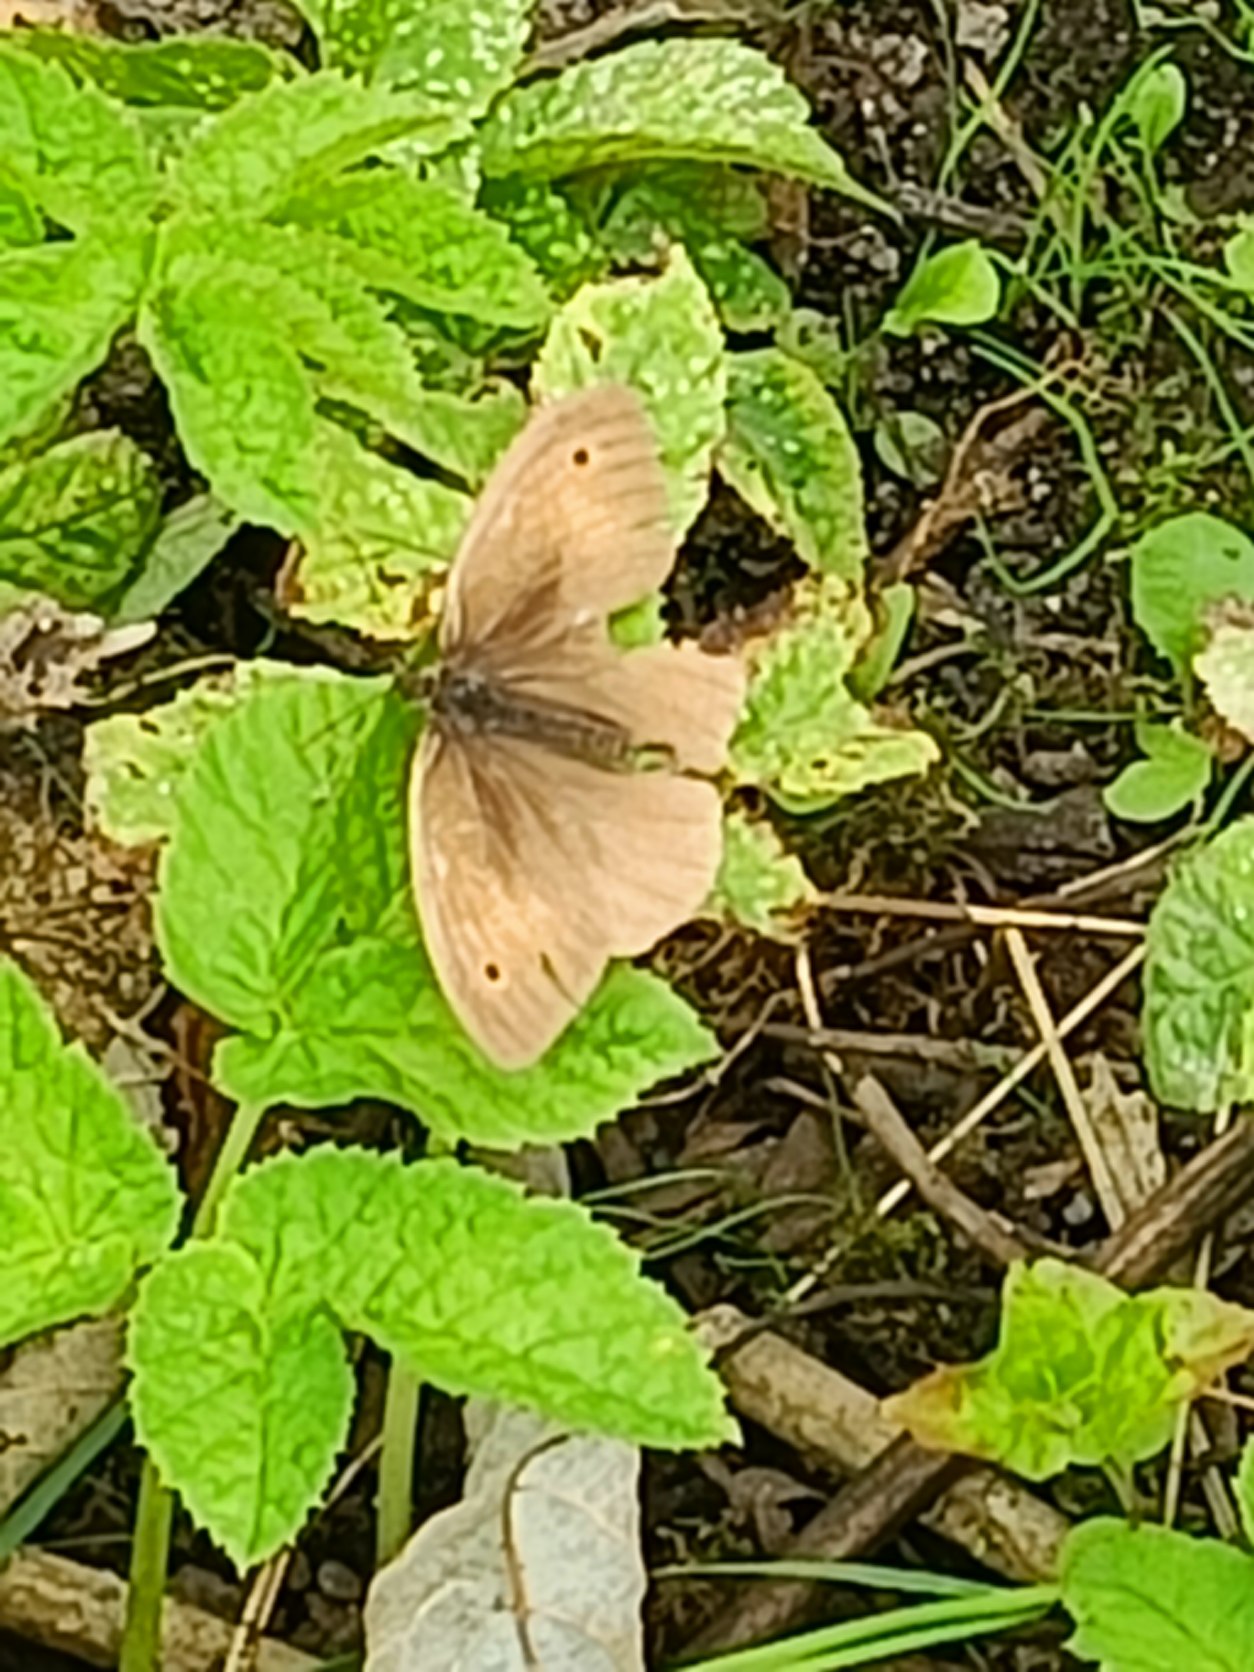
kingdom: Animalia
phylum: Arthropoda
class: Insecta
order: Lepidoptera
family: Nymphalidae
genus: Maniola
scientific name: Maniola jurtina
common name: Græsrandøje
